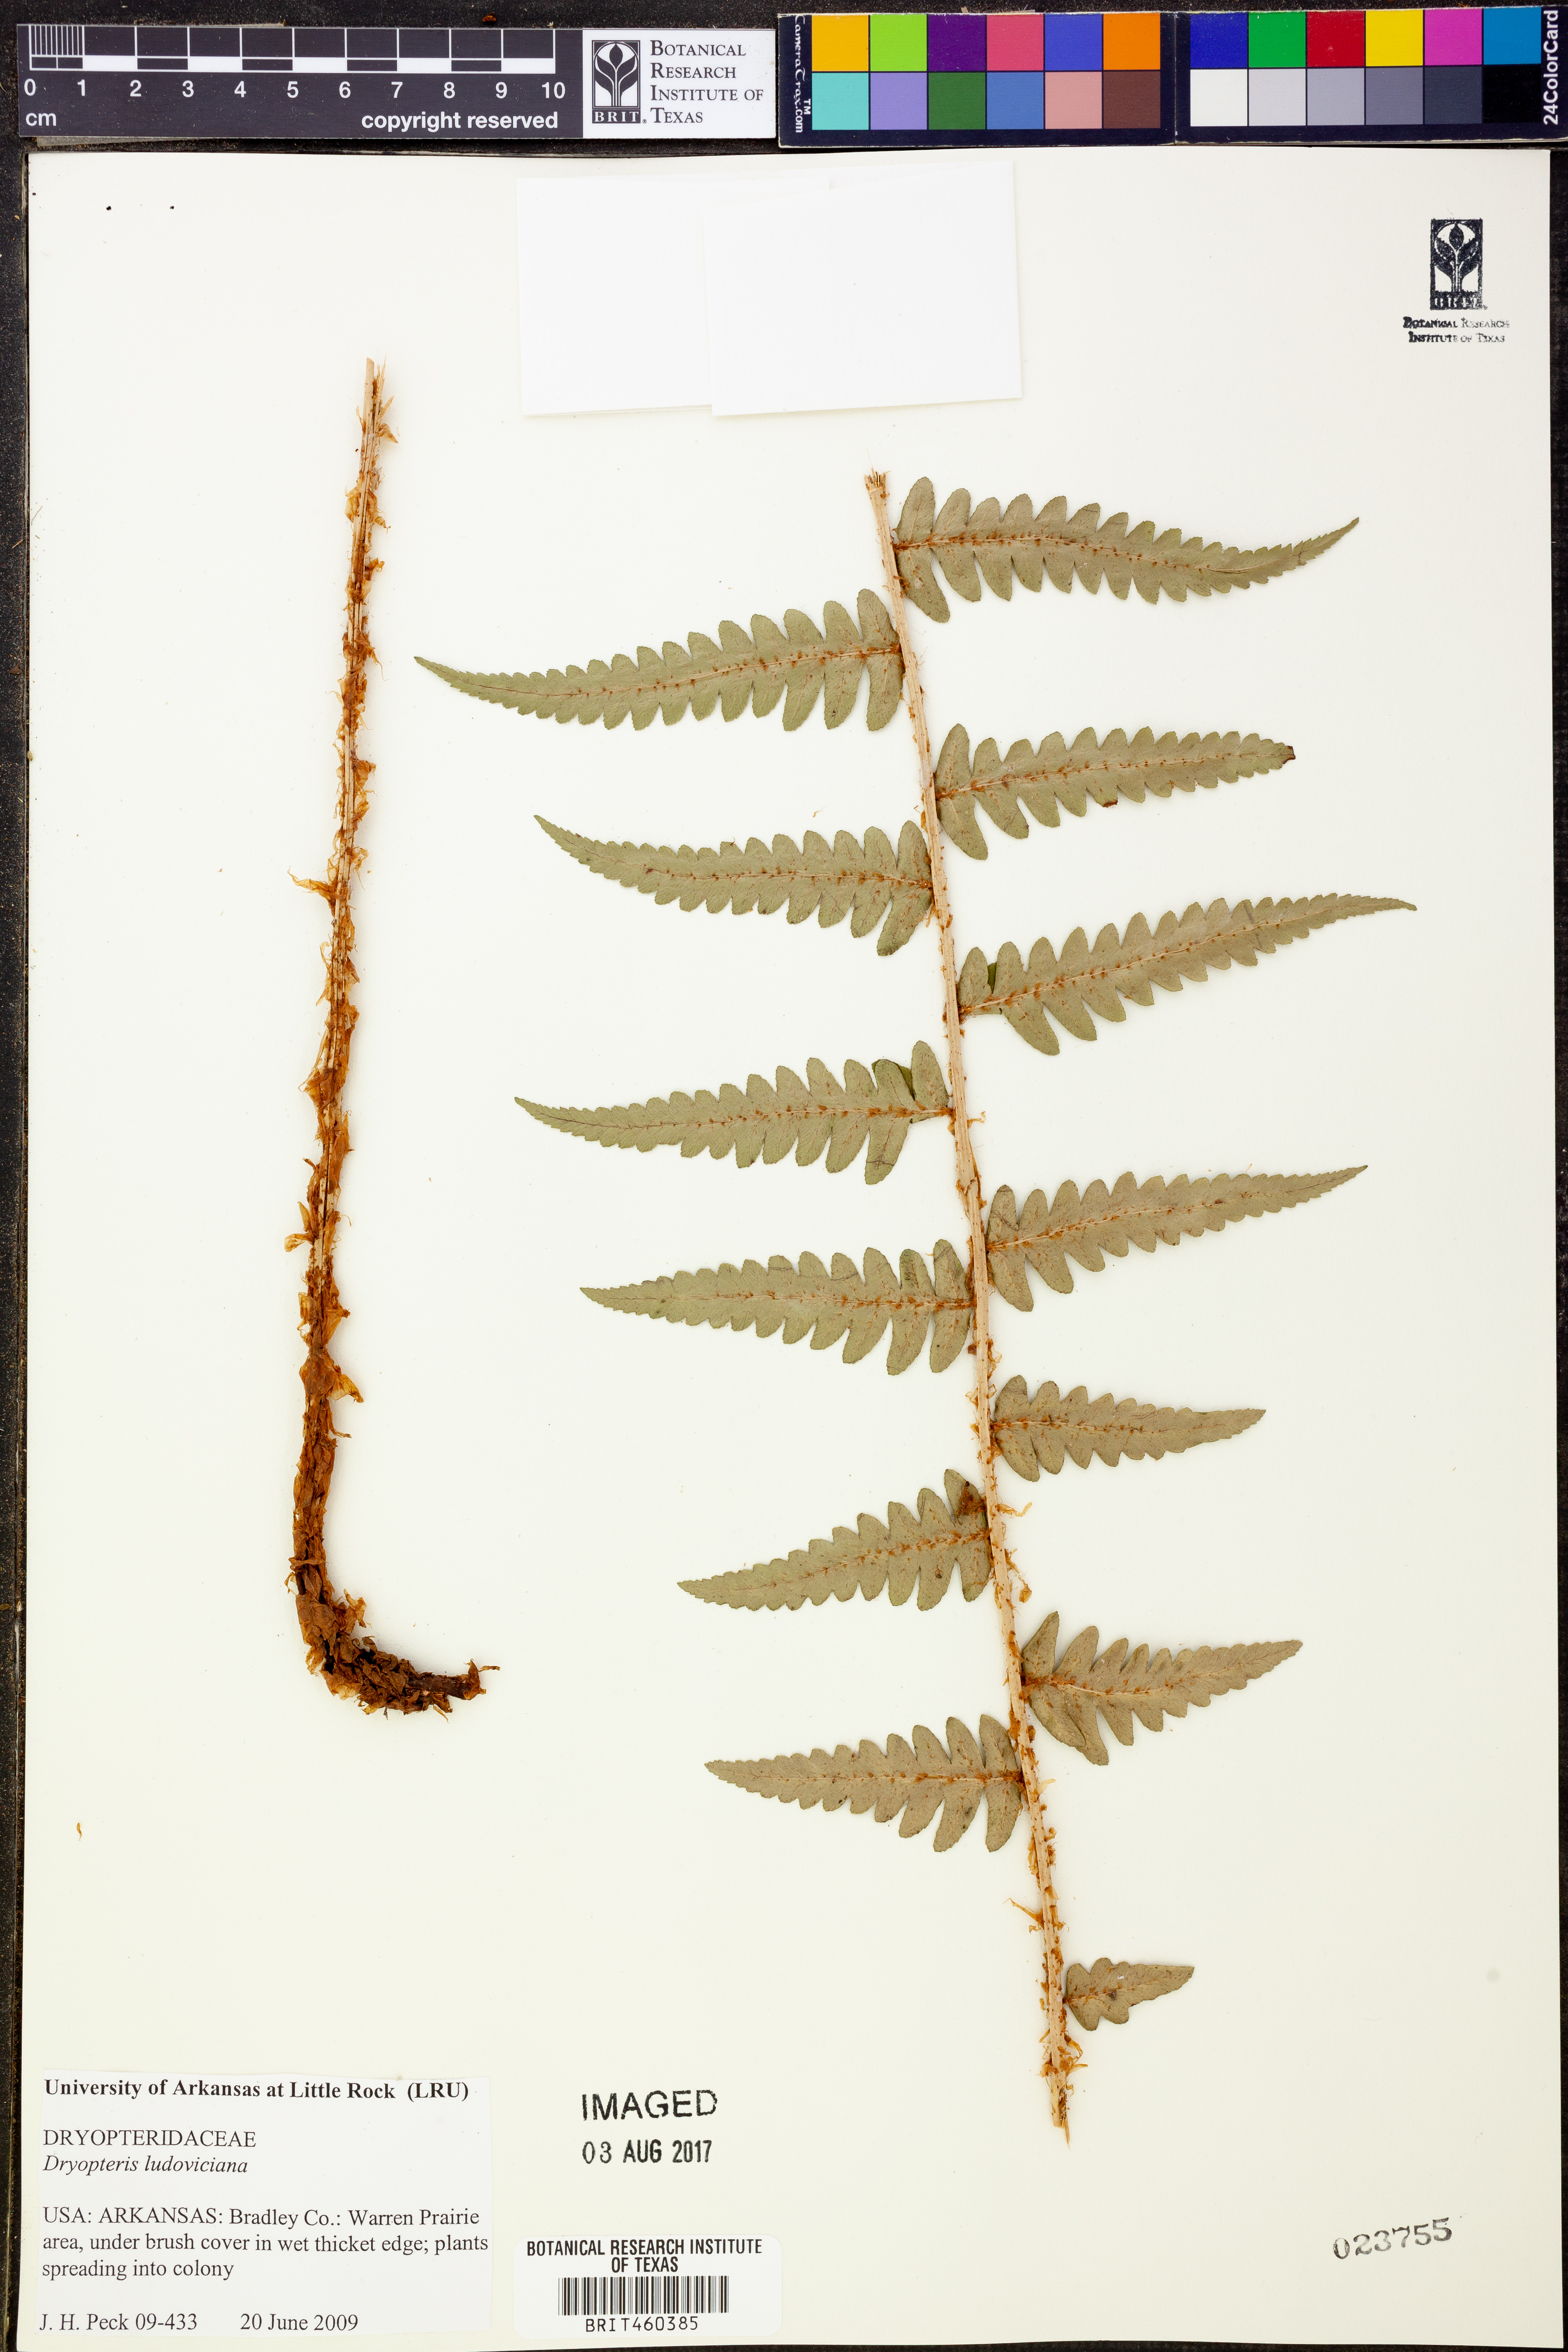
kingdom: Plantae
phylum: Tracheophyta
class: Polypodiopsida
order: Polypodiales
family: Dryopteridaceae
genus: Dryopteris
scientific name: Dryopteris ludoviciana
